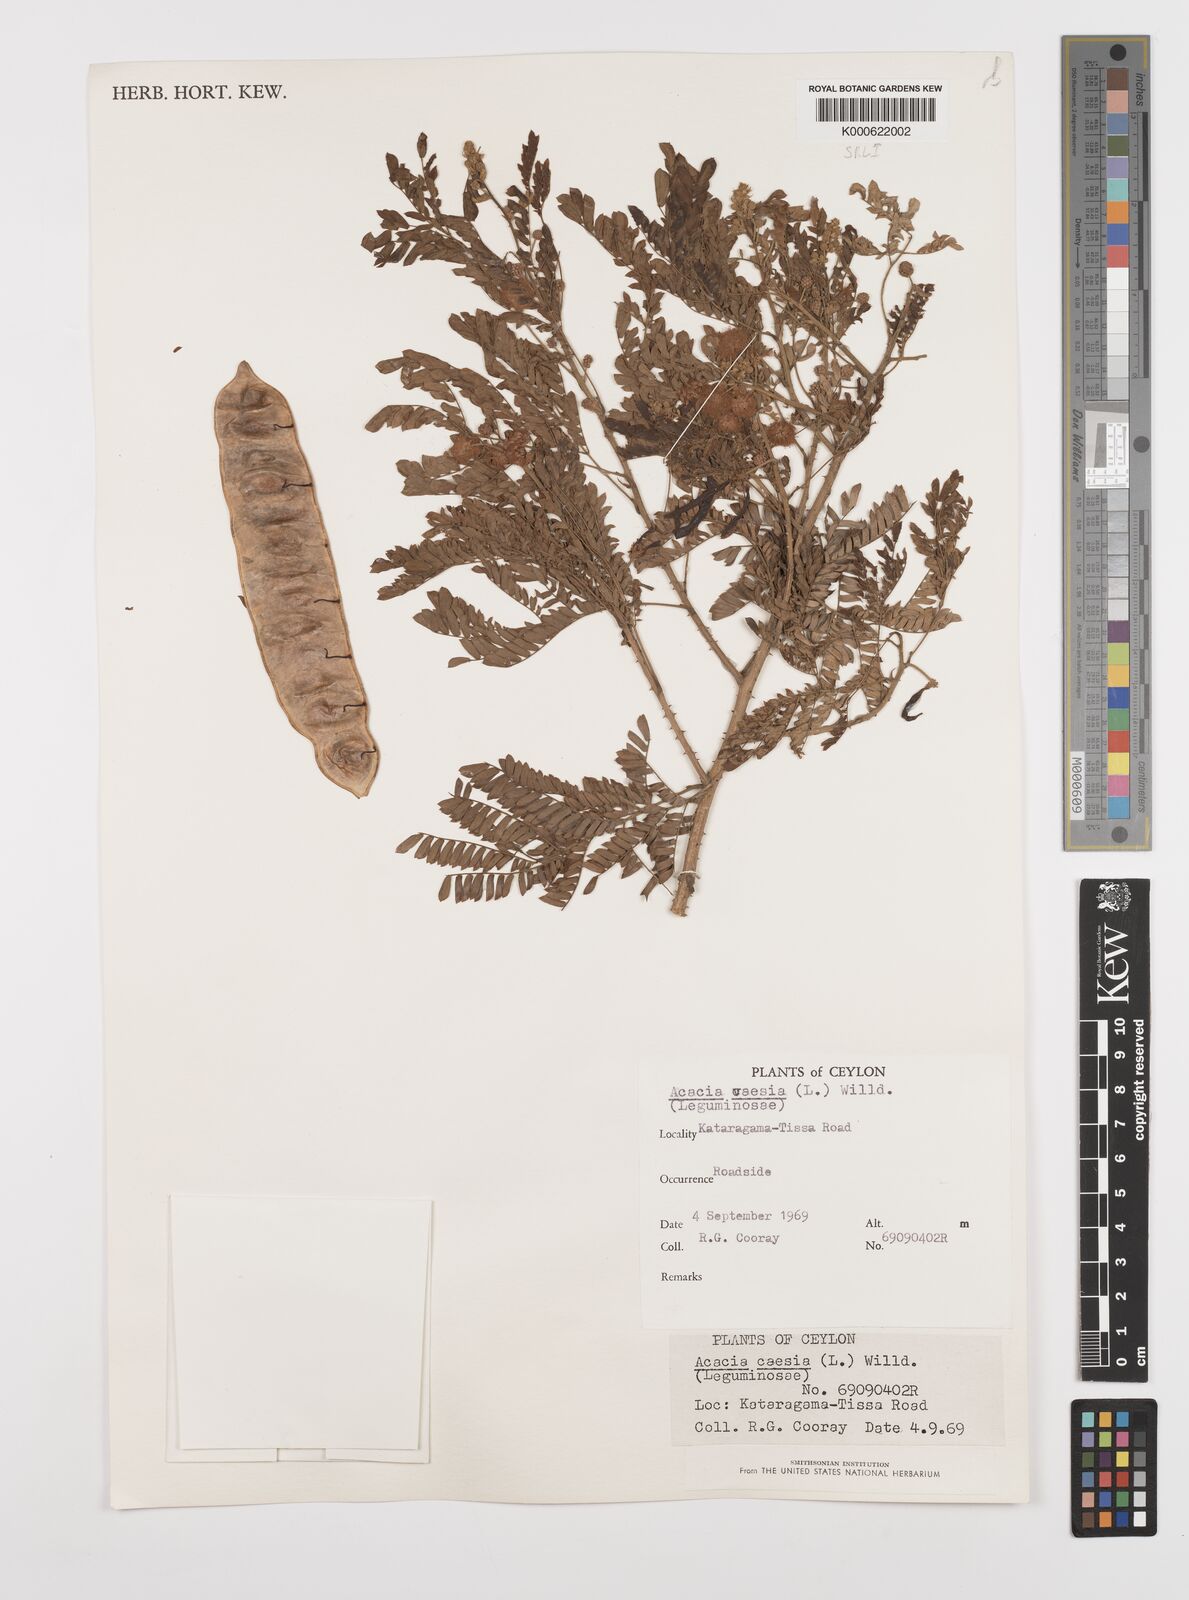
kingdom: Plantae
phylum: Tracheophyta
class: Magnoliopsida
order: Fabales
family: Fabaceae
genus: Senegalia
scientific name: Senegalia caesia
